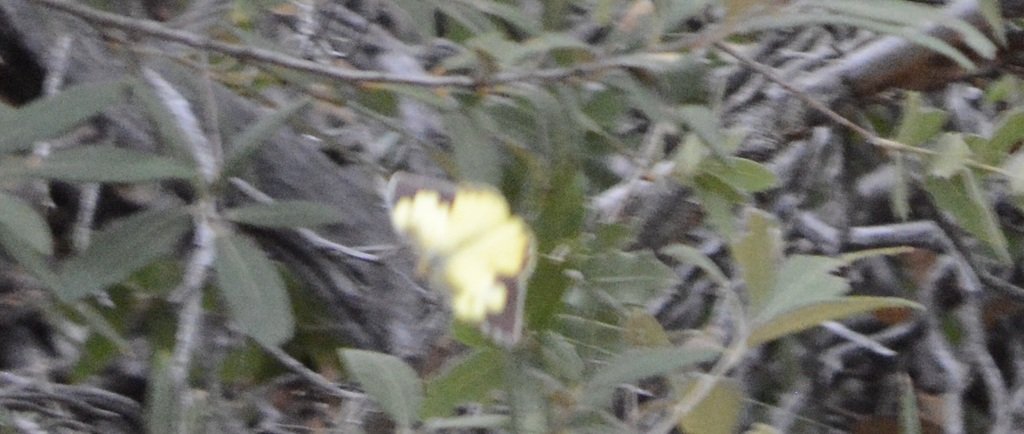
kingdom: Animalia
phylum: Arthropoda
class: Insecta
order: Lepidoptera
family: Pieridae
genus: Zerene
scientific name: Zerene cesonia
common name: Southern Dogface
